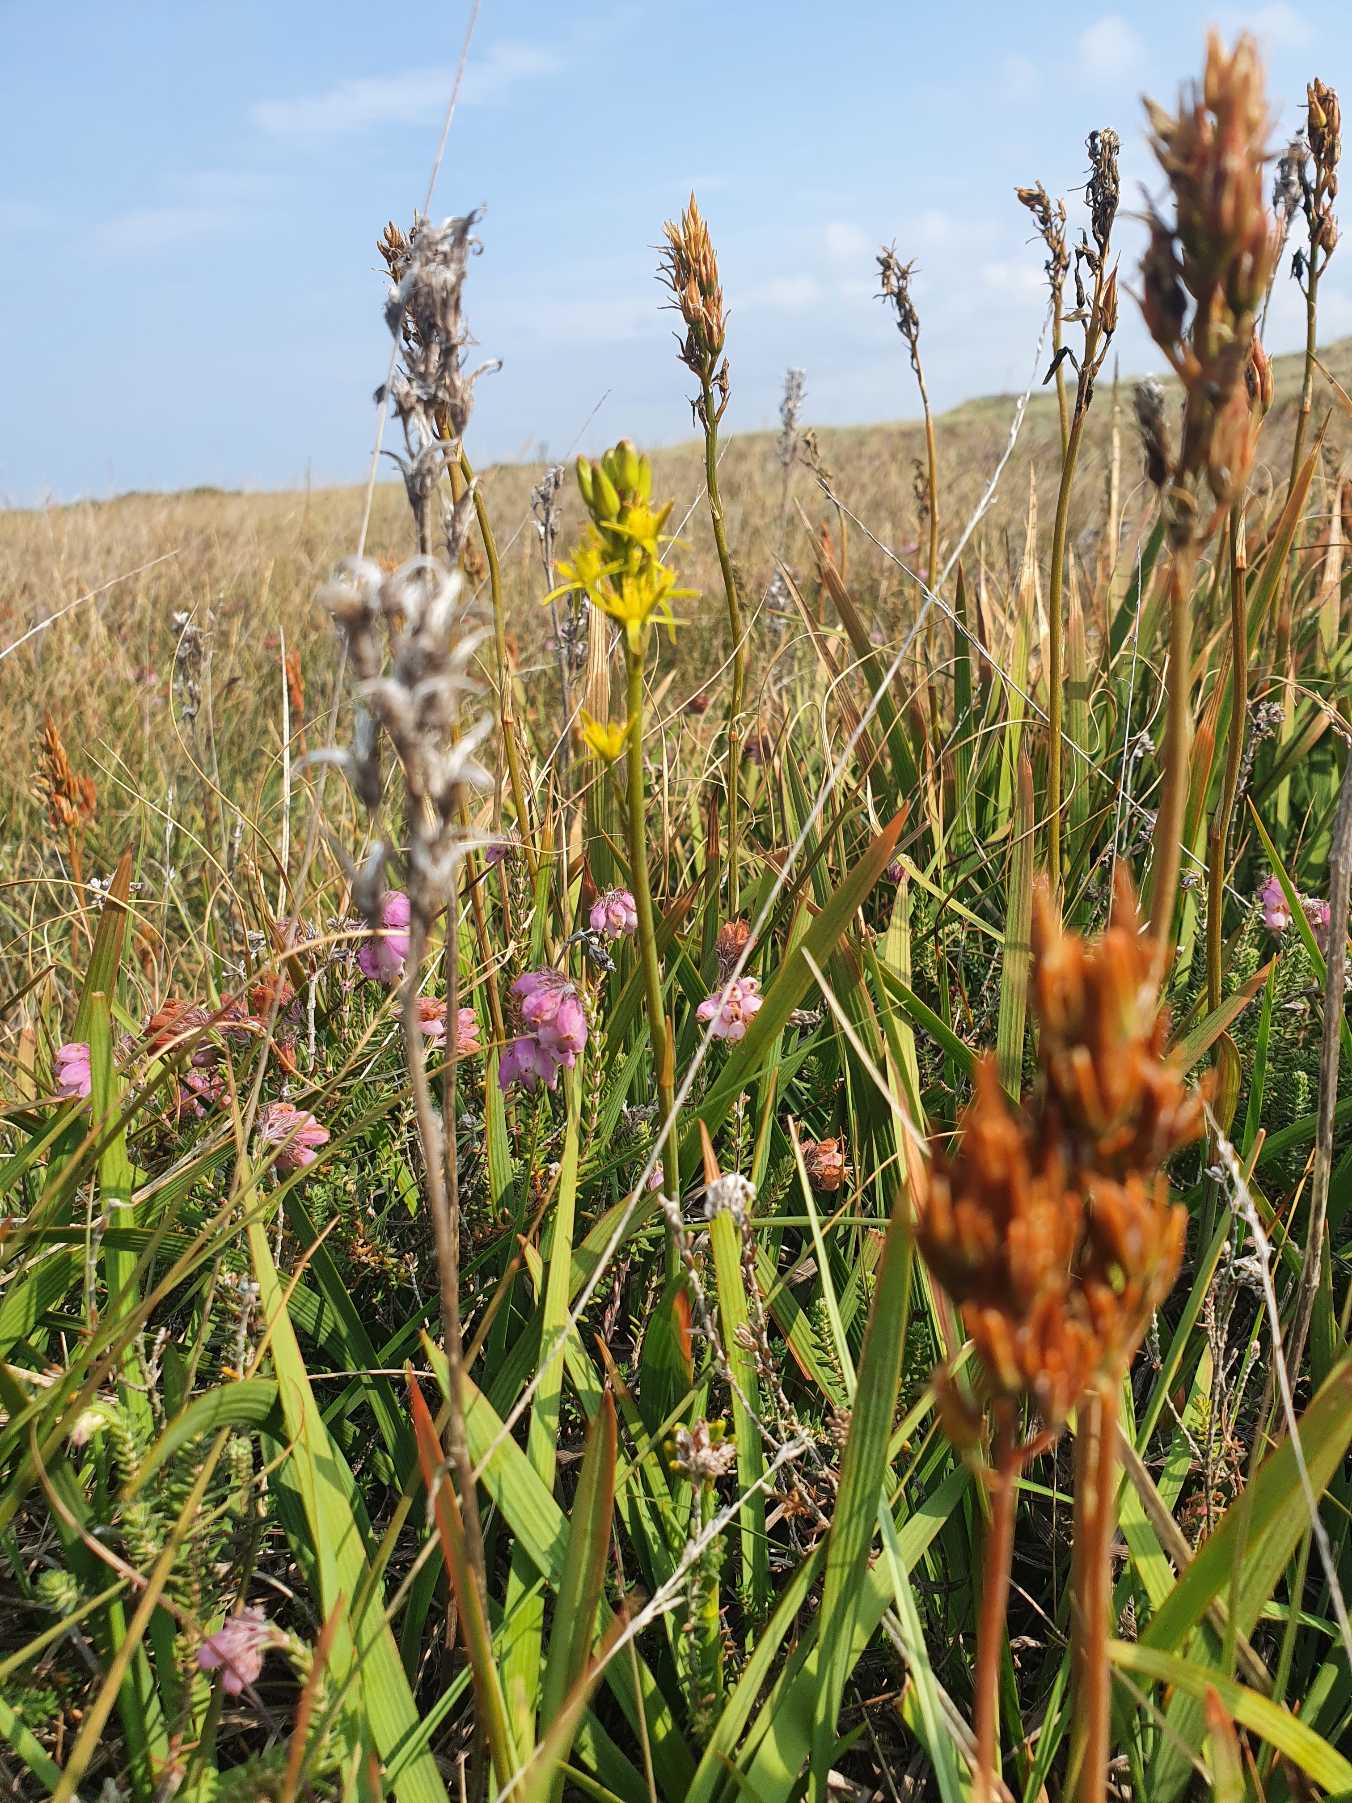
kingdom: Plantae
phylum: Tracheophyta
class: Liliopsida
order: Dioscoreales
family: Nartheciaceae
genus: Narthecium
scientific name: Narthecium ossifragum
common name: Benbræk
